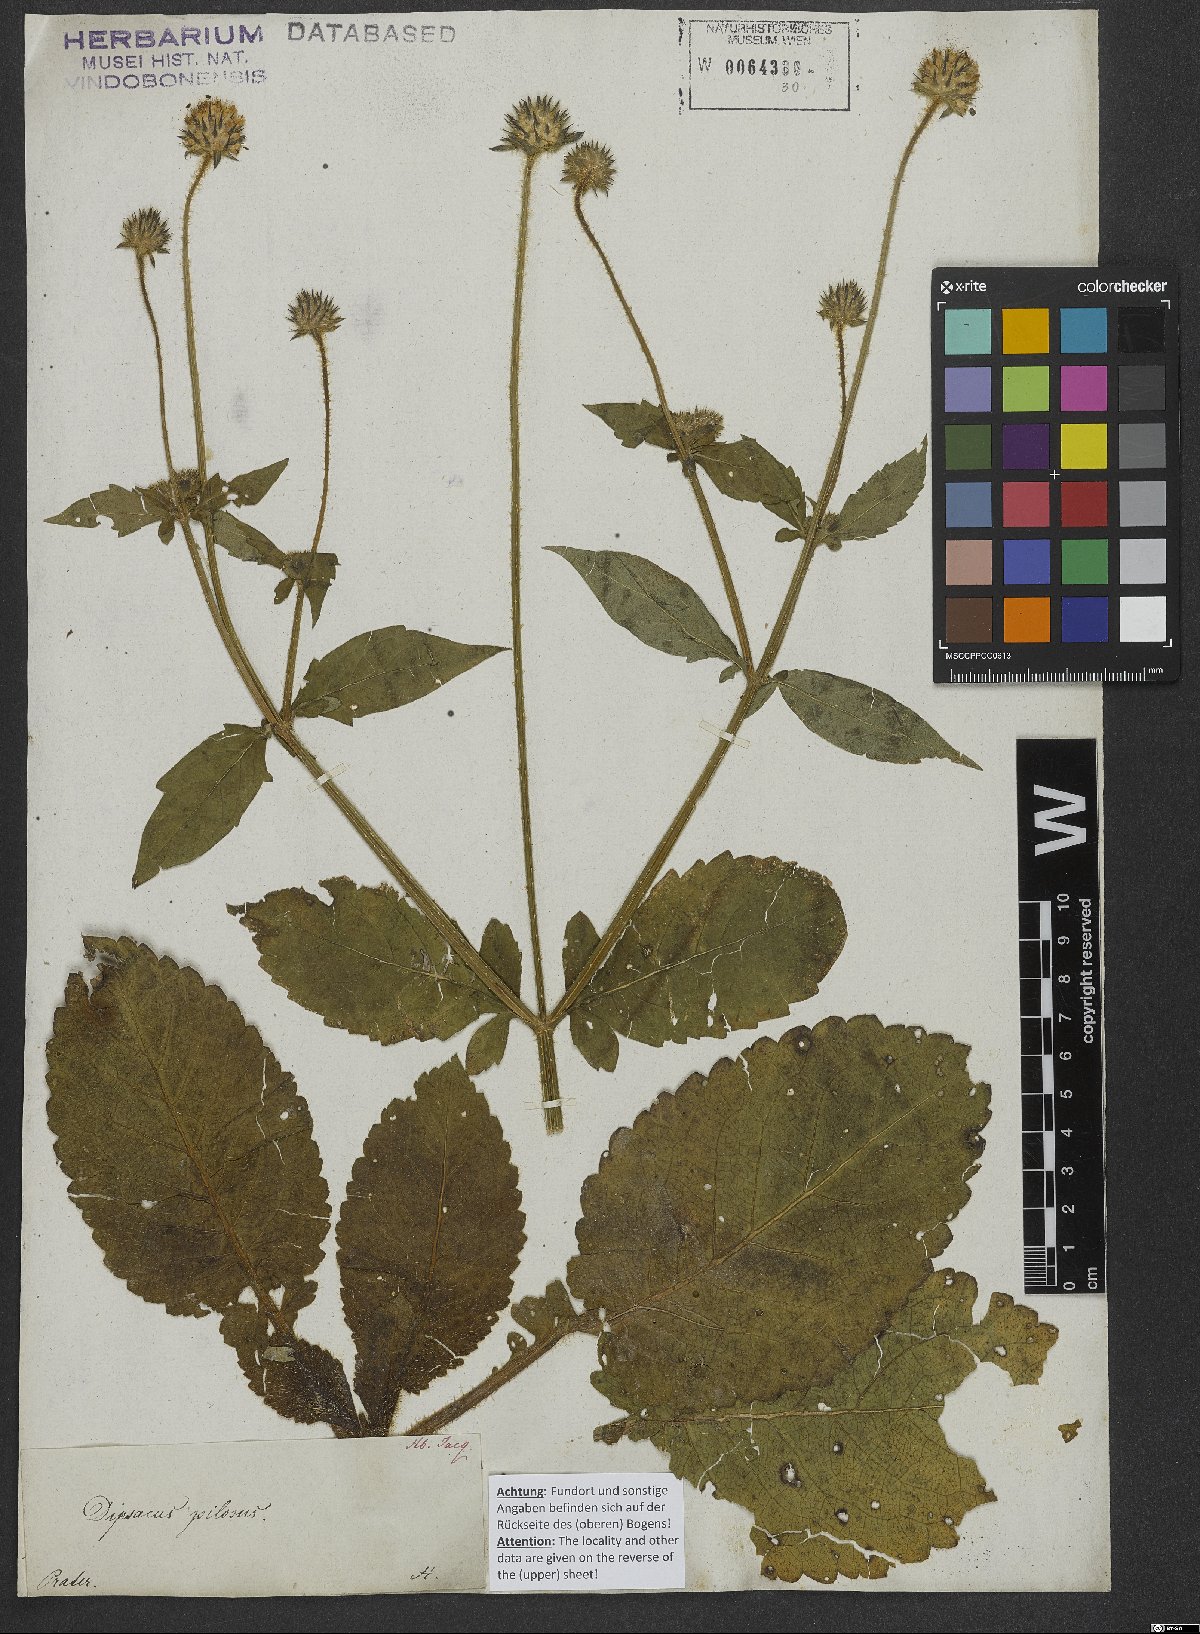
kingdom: Plantae
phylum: Tracheophyta
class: Magnoliopsida
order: Dipsacales
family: Caprifoliaceae
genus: Dipsacus
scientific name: Dipsacus pilosus
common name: Small teasel
